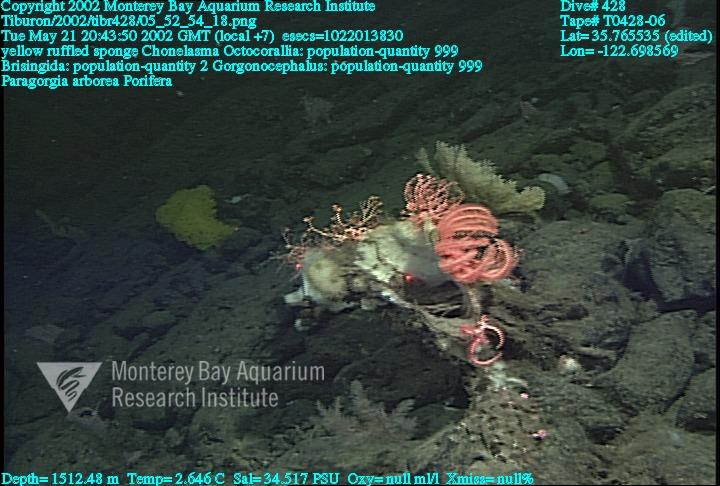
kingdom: Animalia
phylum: Porifera
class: Hexactinellida
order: Sceptrulophora
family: Euretidae
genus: Chonelasma
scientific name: Chonelasma
